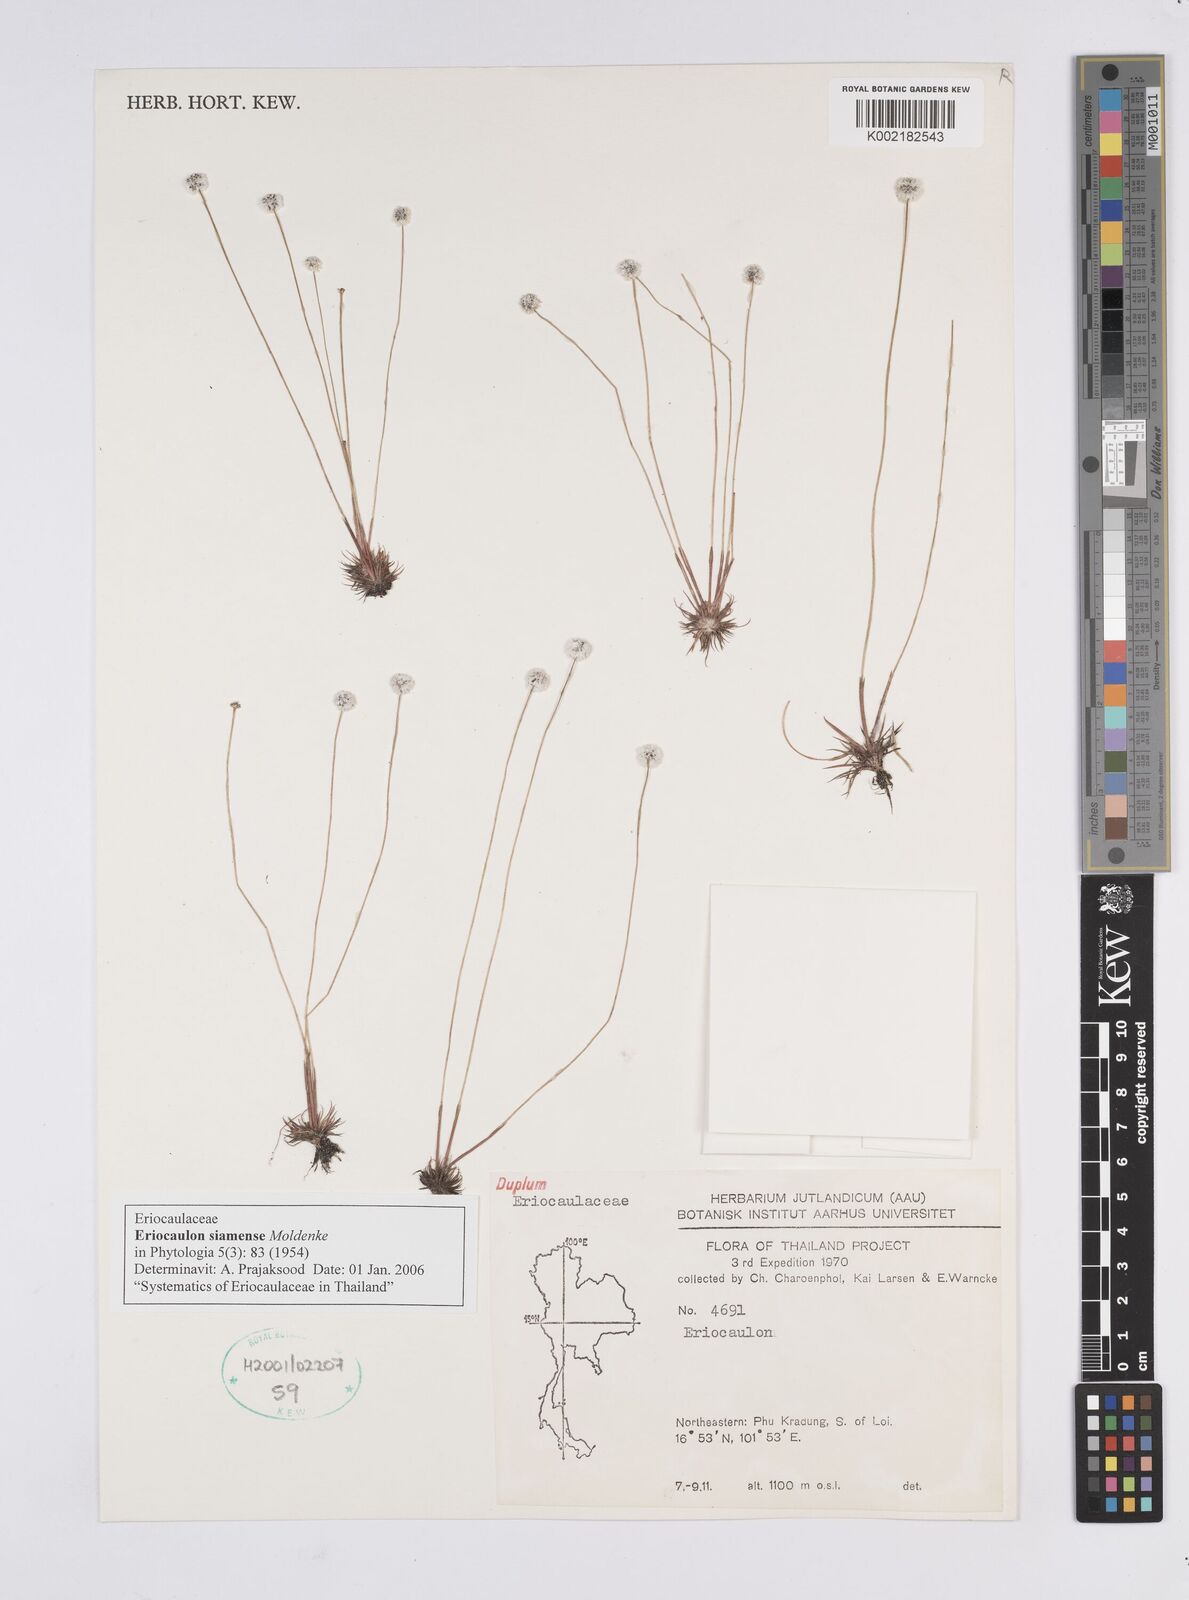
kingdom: Plantae
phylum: Tracheophyta
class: Liliopsida
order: Poales
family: Eriocaulaceae
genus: Eriocaulon
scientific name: Eriocaulon siamense
